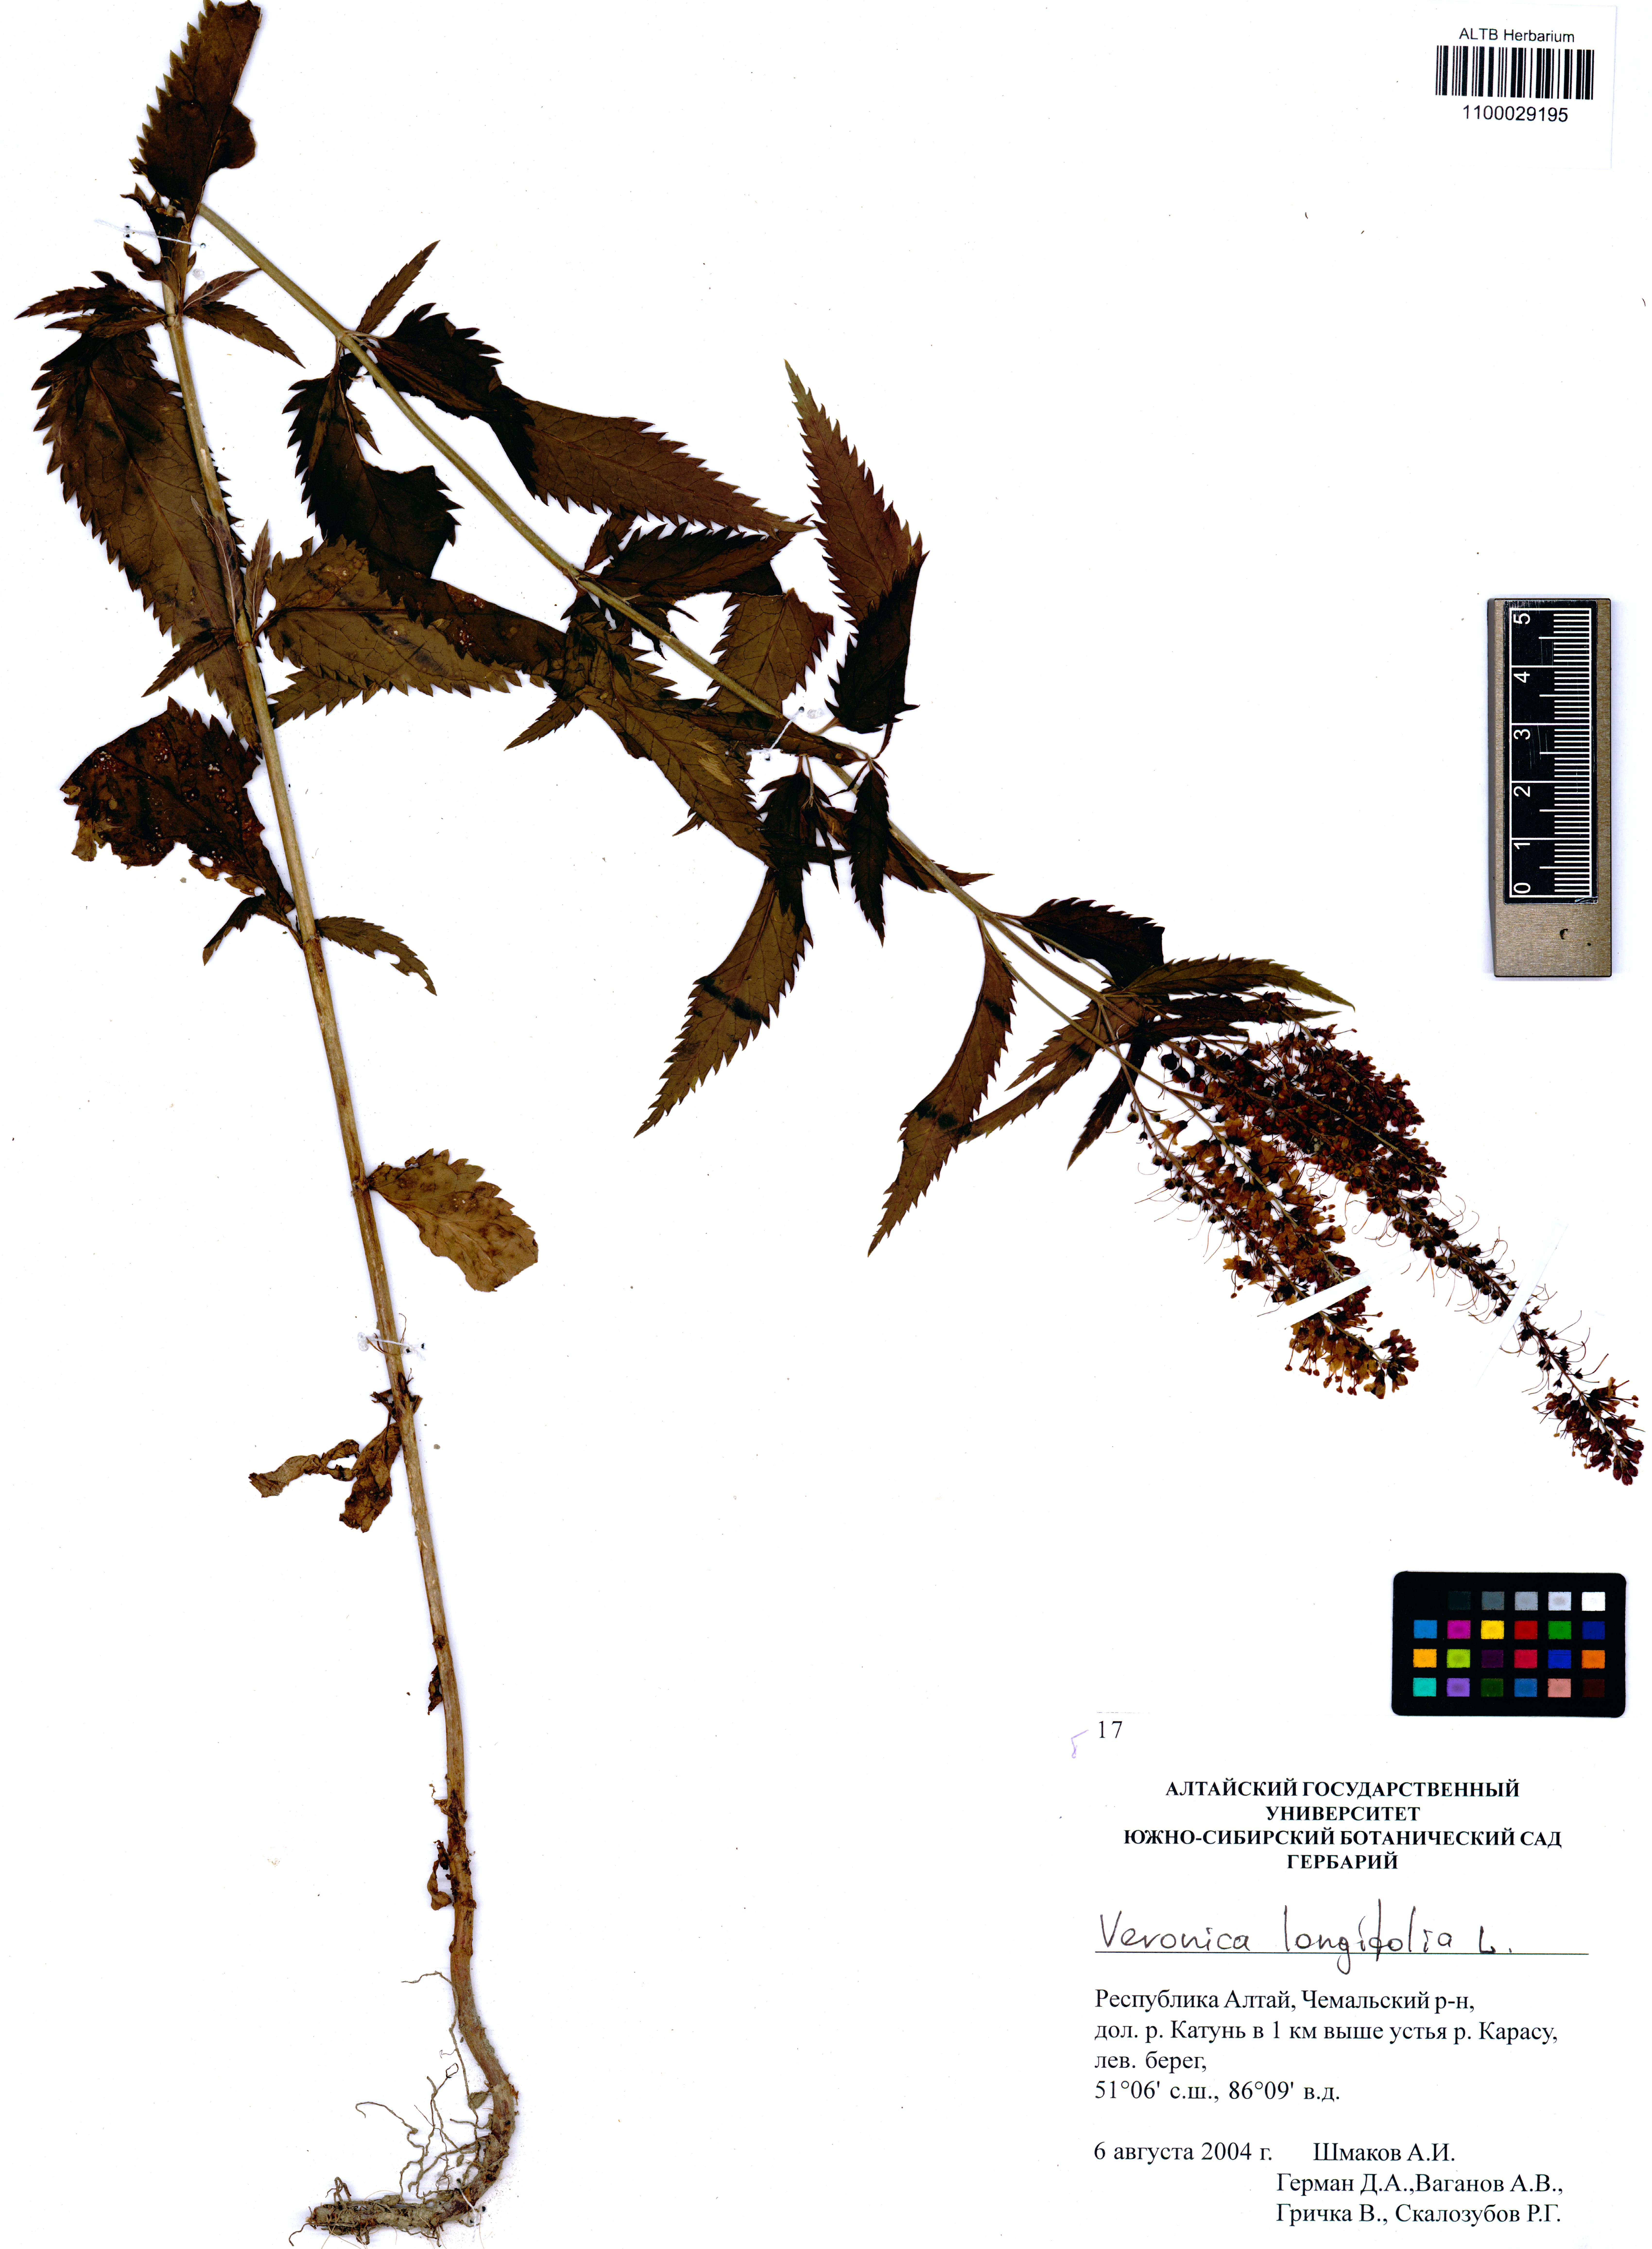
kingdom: Plantae
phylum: Tracheophyta
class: Magnoliopsida
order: Lamiales
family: Plantaginaceae
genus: Veronica
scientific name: Veronica longifolia
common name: Garden speedwell
